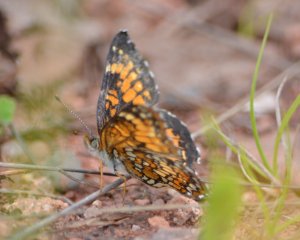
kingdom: Animalia
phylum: Arthropoda
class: Insecta
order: Lepidoptera
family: Nymphalidae
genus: Chlosyne
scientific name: Chlosyne harrisii
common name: Harris's Checkerspot
